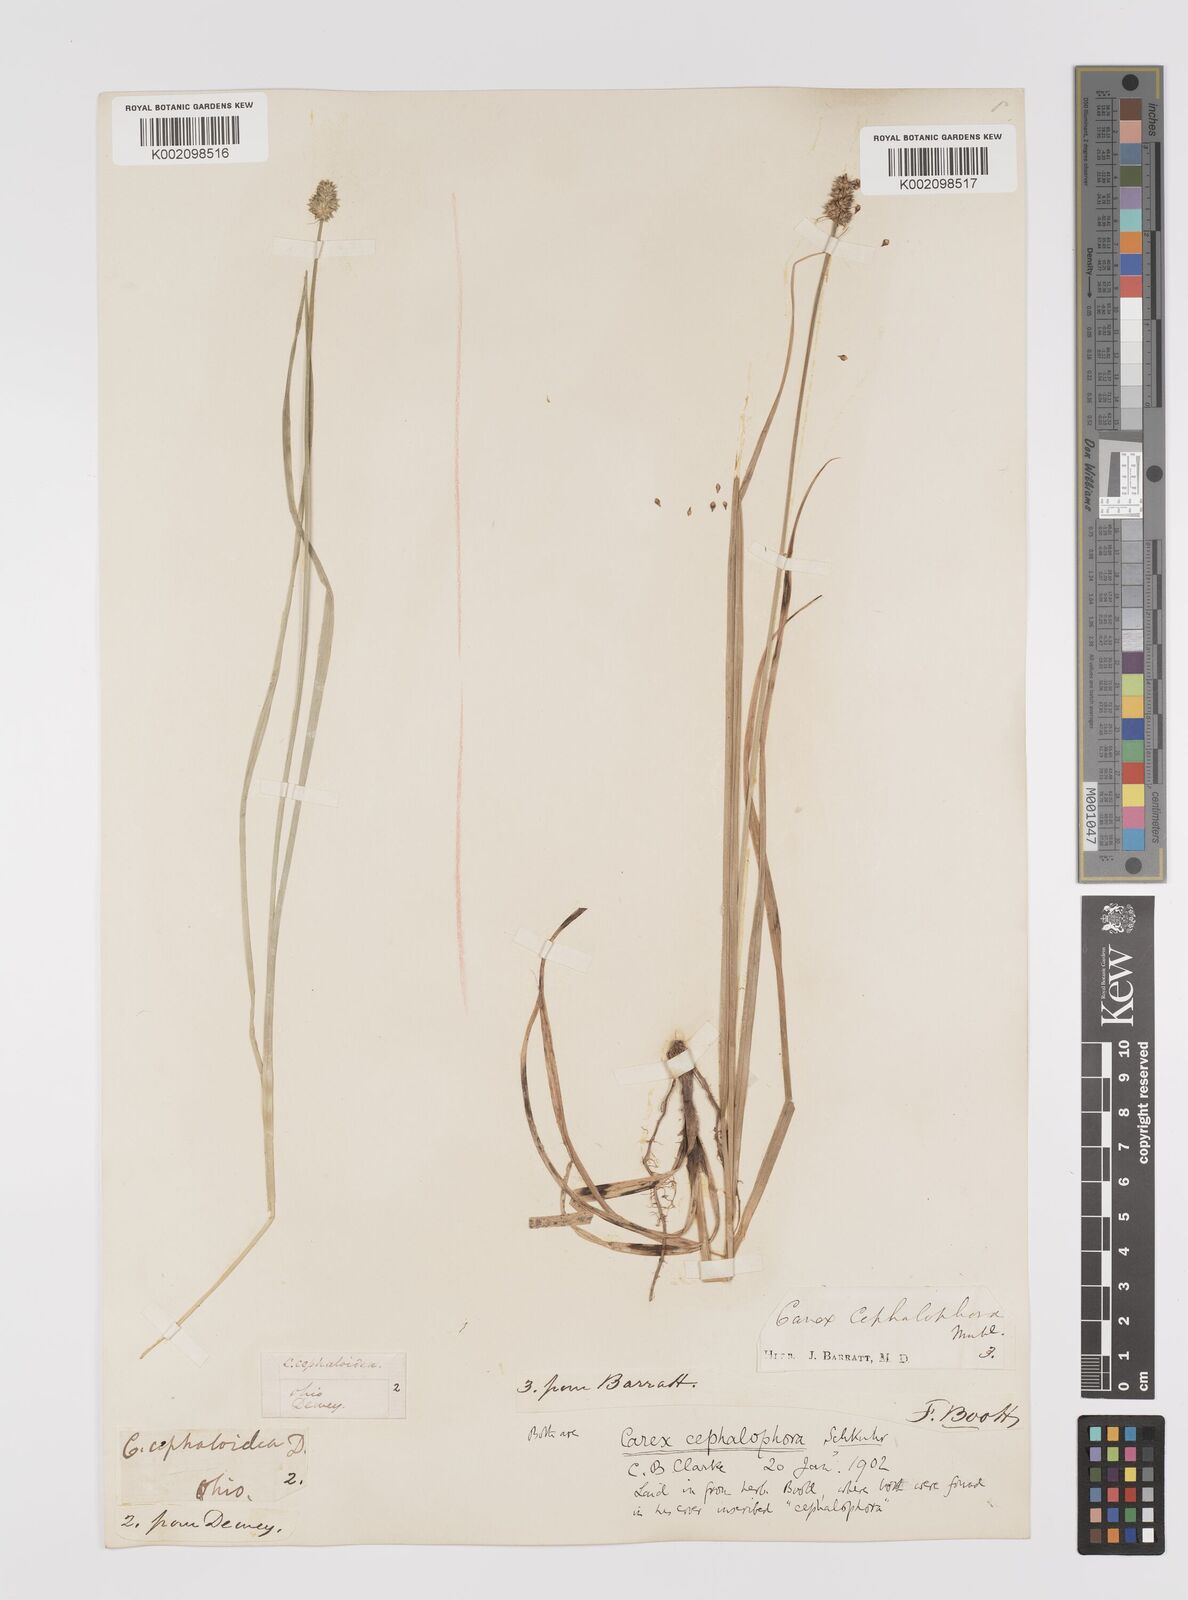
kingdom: Plantae
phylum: Tracheophyta
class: Liliopsida
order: Poales
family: Cyperaceae
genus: Carex
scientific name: Carex cephalophora
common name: Oval-headed sedge
